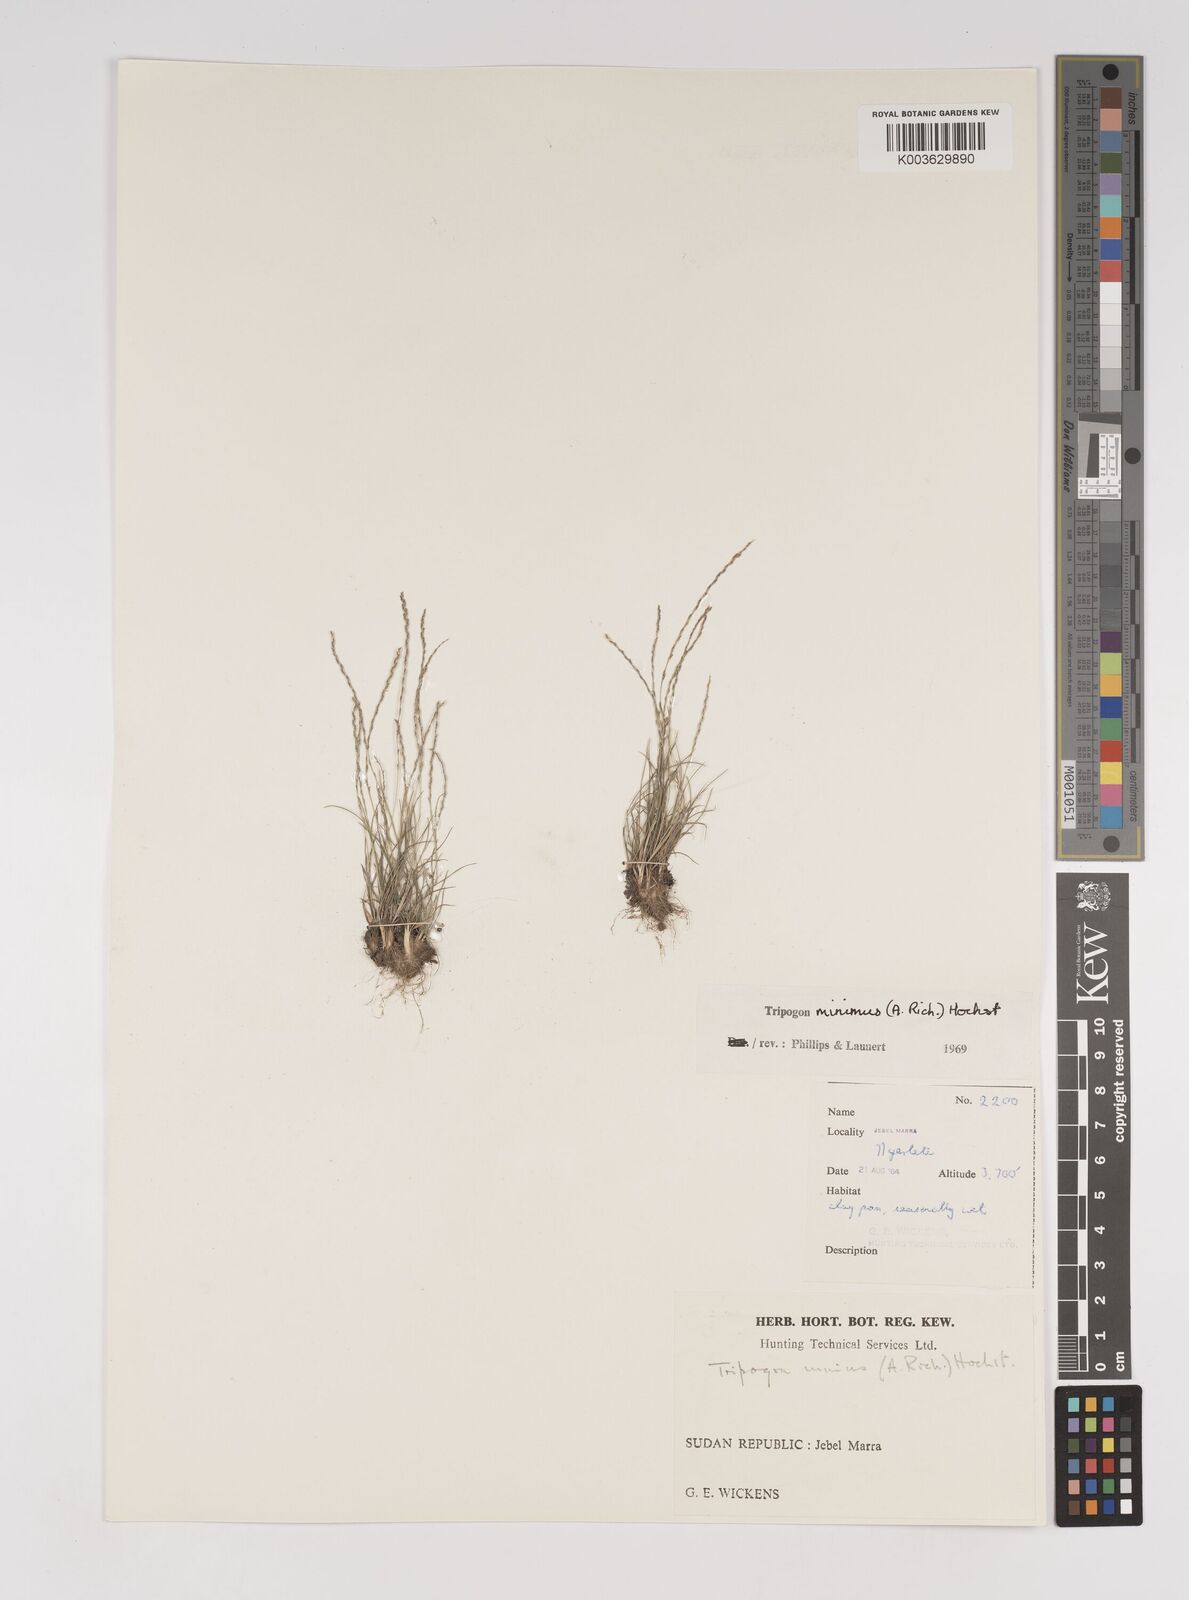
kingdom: Plantae
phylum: Tracheophyta
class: Liliopsida
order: Poales
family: Poaceae
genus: Tripogonella
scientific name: Tripogonella minima
